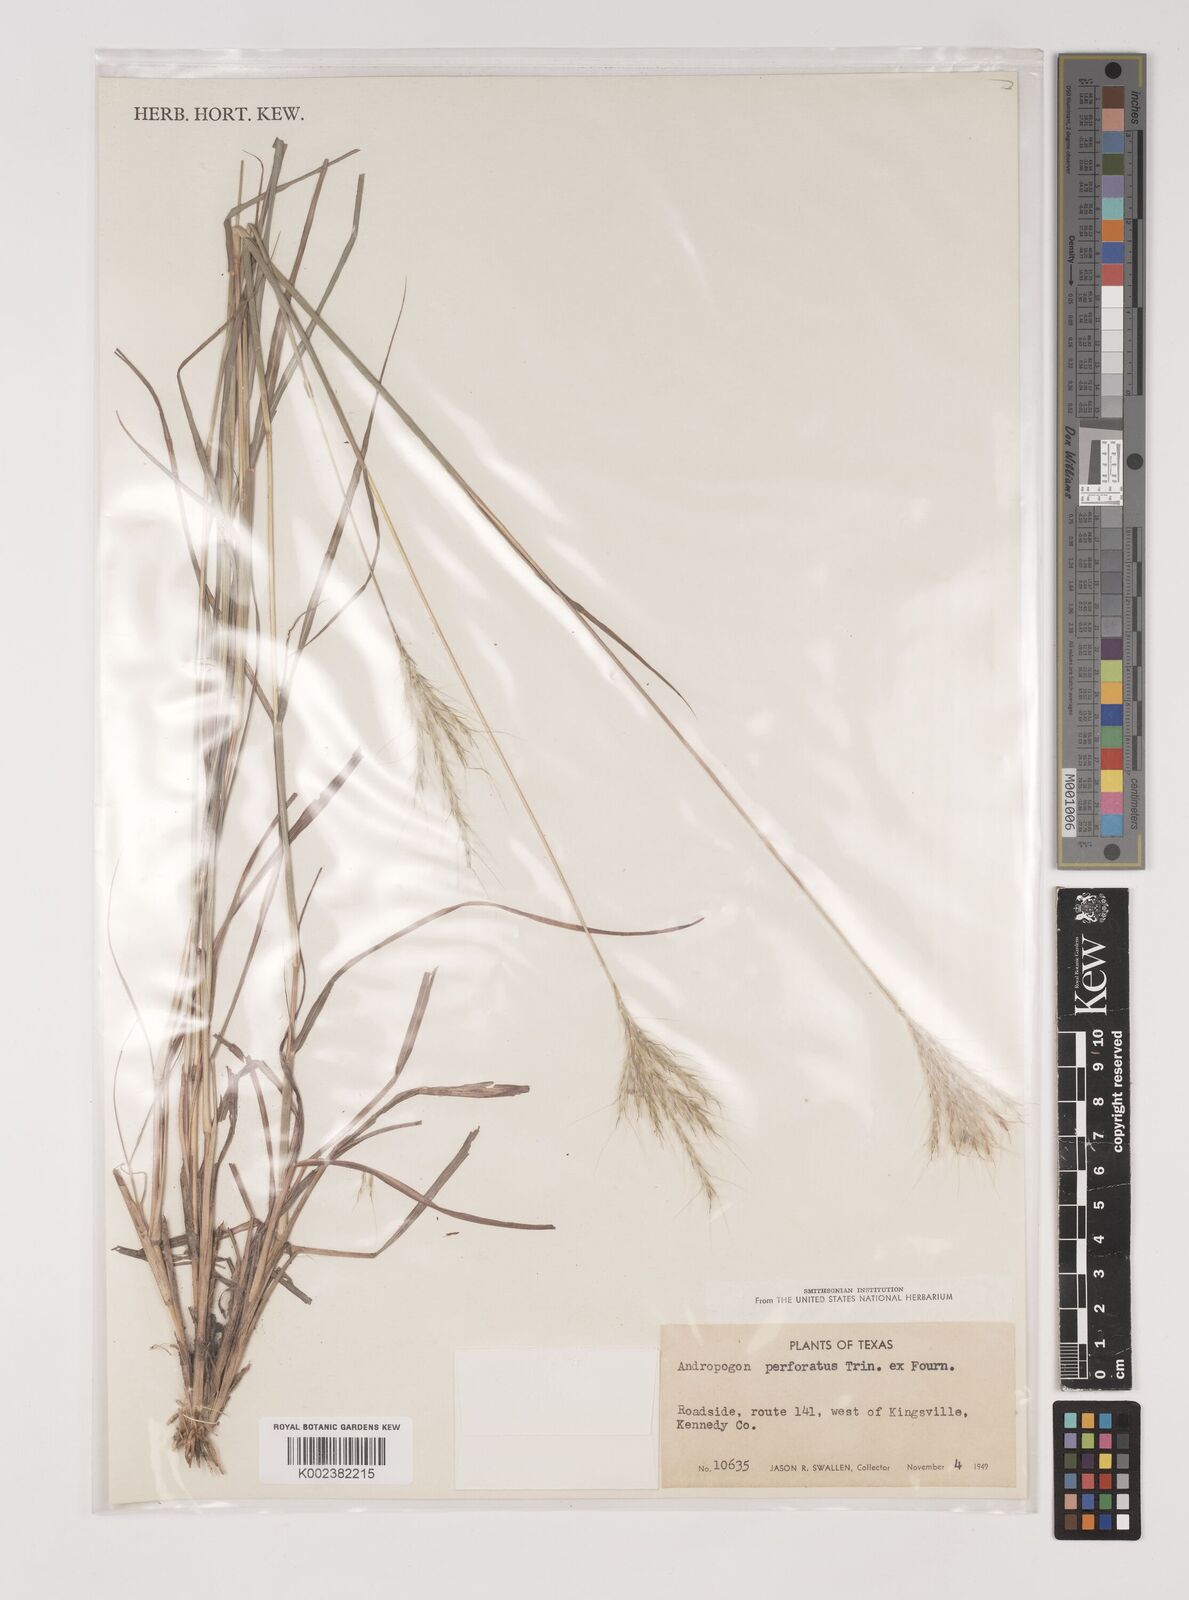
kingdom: Plantae
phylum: Tracheophyta
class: Liliopsida
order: Poales
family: Poaceae
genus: Bothriochloa
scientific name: Bothriochloa ischaemum
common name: Yellow bluestem
